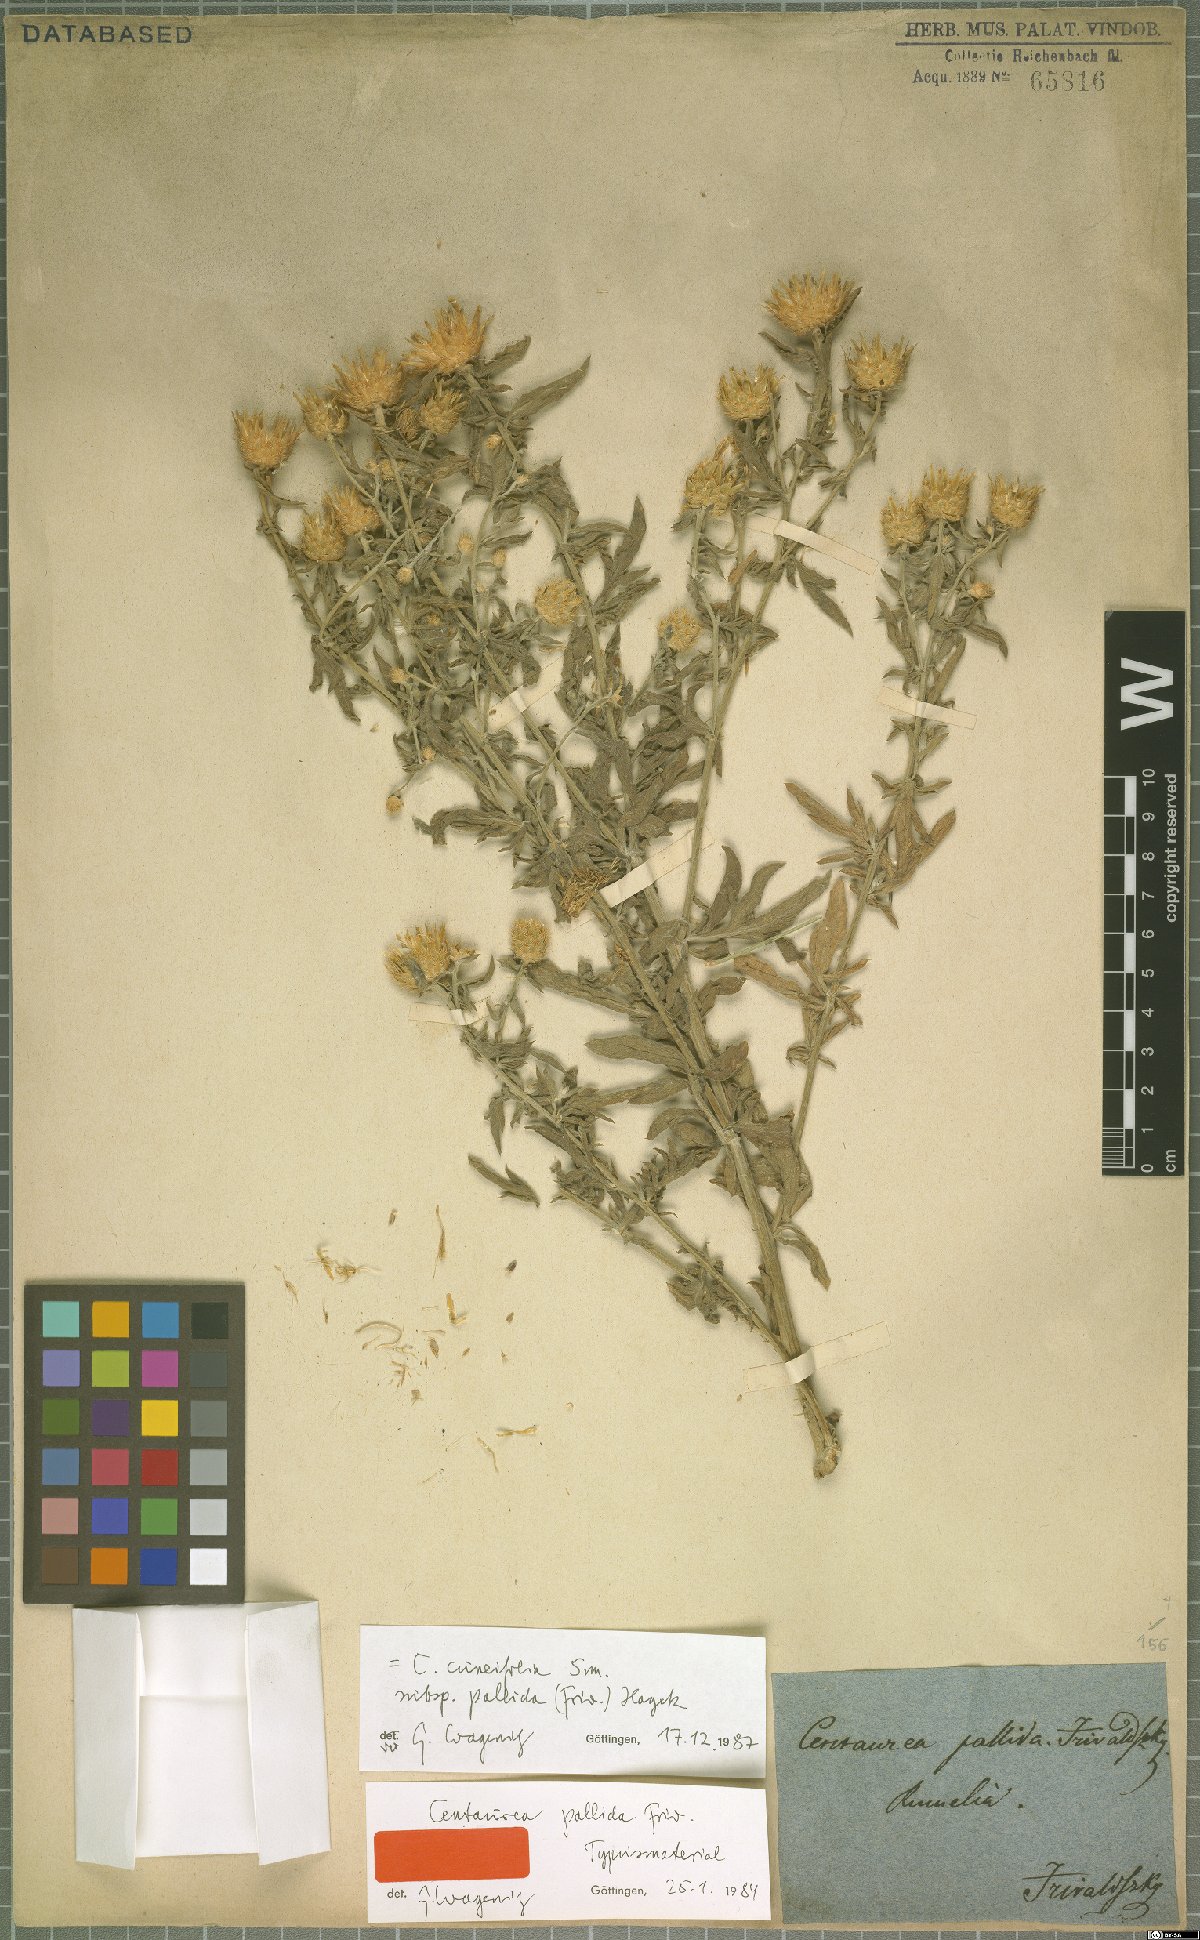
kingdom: Plantae
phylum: Tracheophyta
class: Magnoliopsida
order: Asterales
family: Asteraceae
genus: Centaurea
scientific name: Centaurea cuneifolia
